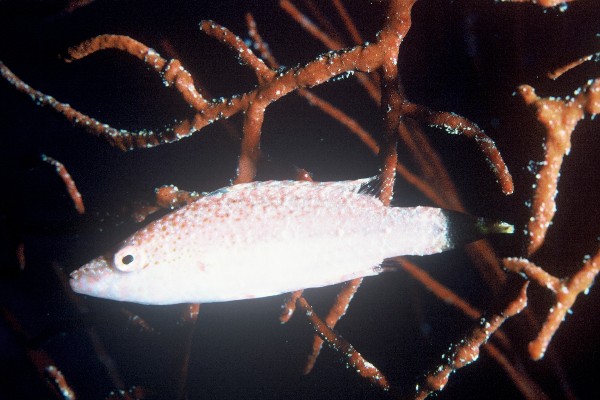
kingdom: Animalia
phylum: Chordata
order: Perciformes
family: Labridae
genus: Oxycheilinus
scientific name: Oxycheilinus arenatus
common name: Arenatus wrasse
